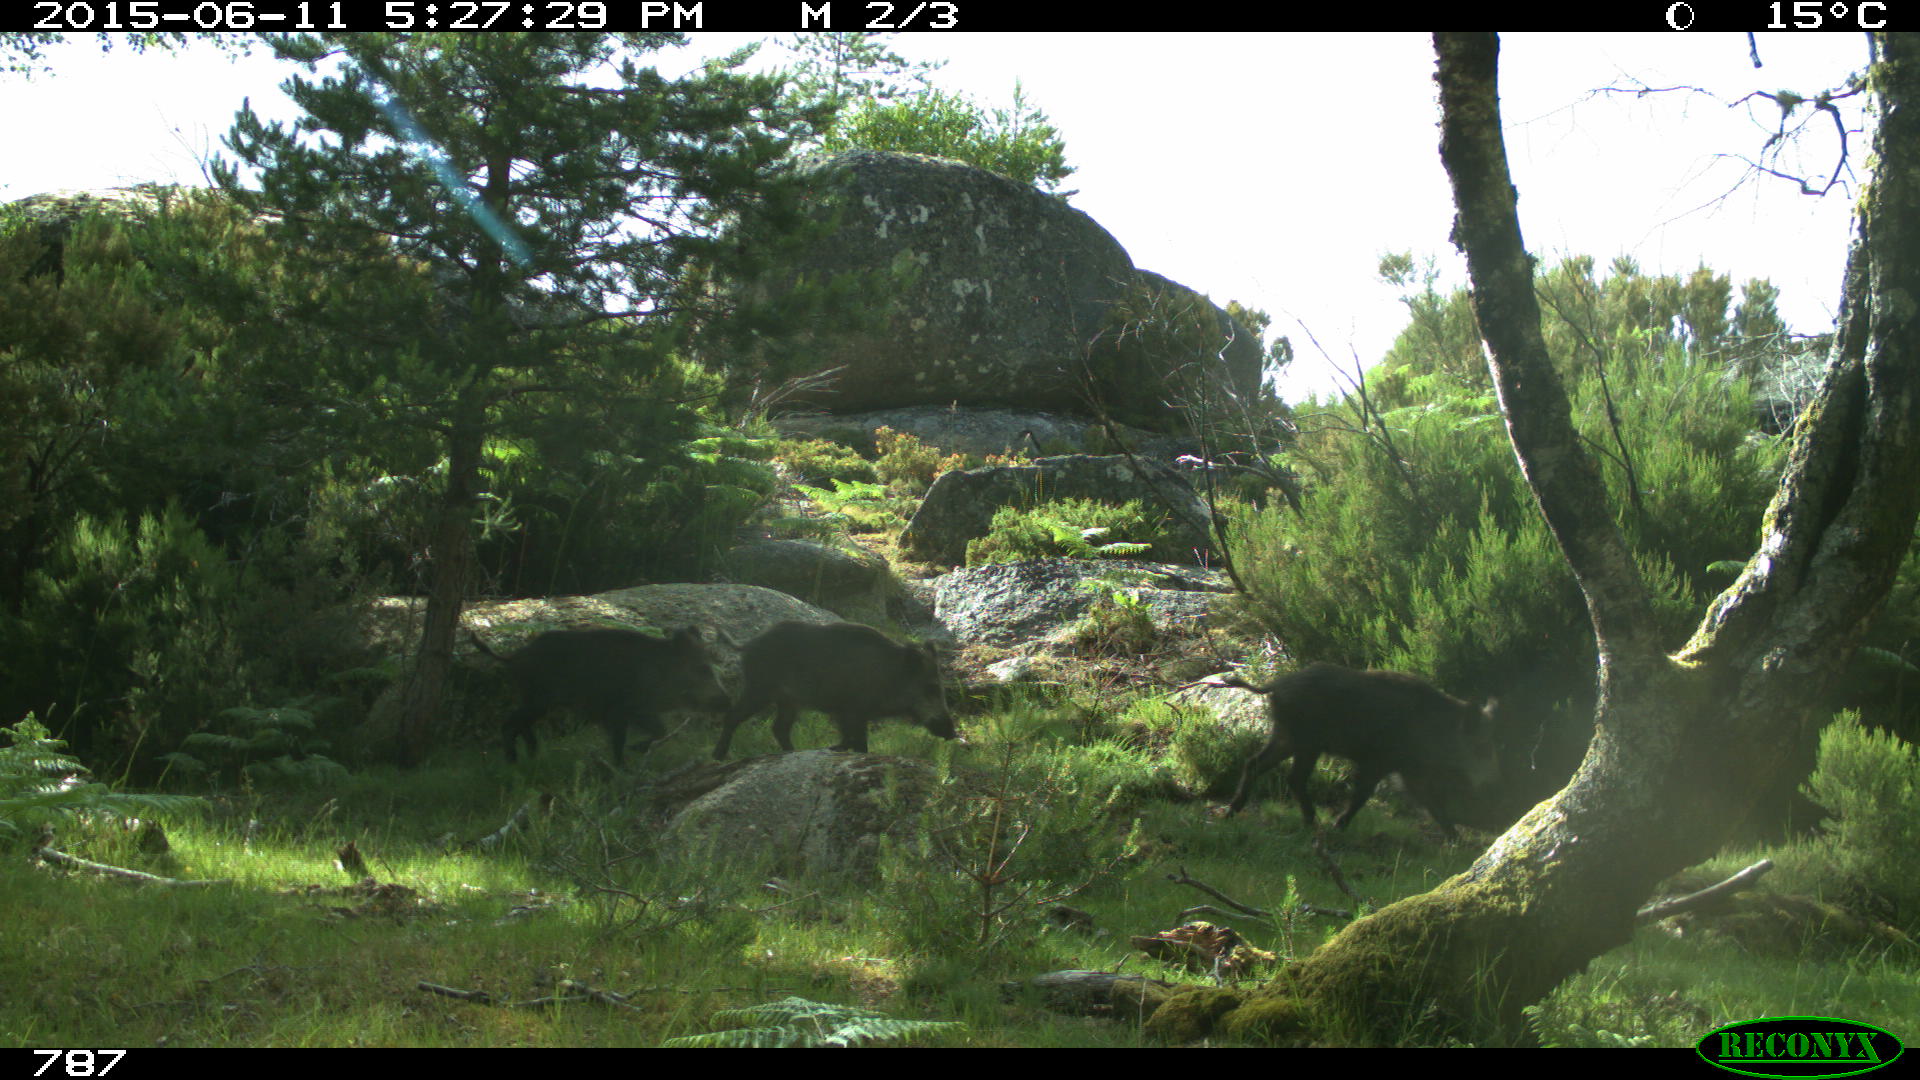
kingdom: Animalia
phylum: Chordata
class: Mammalia
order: Artiodactyla
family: Suidae
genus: Sus
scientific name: Sus scrofa
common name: Wild boar
